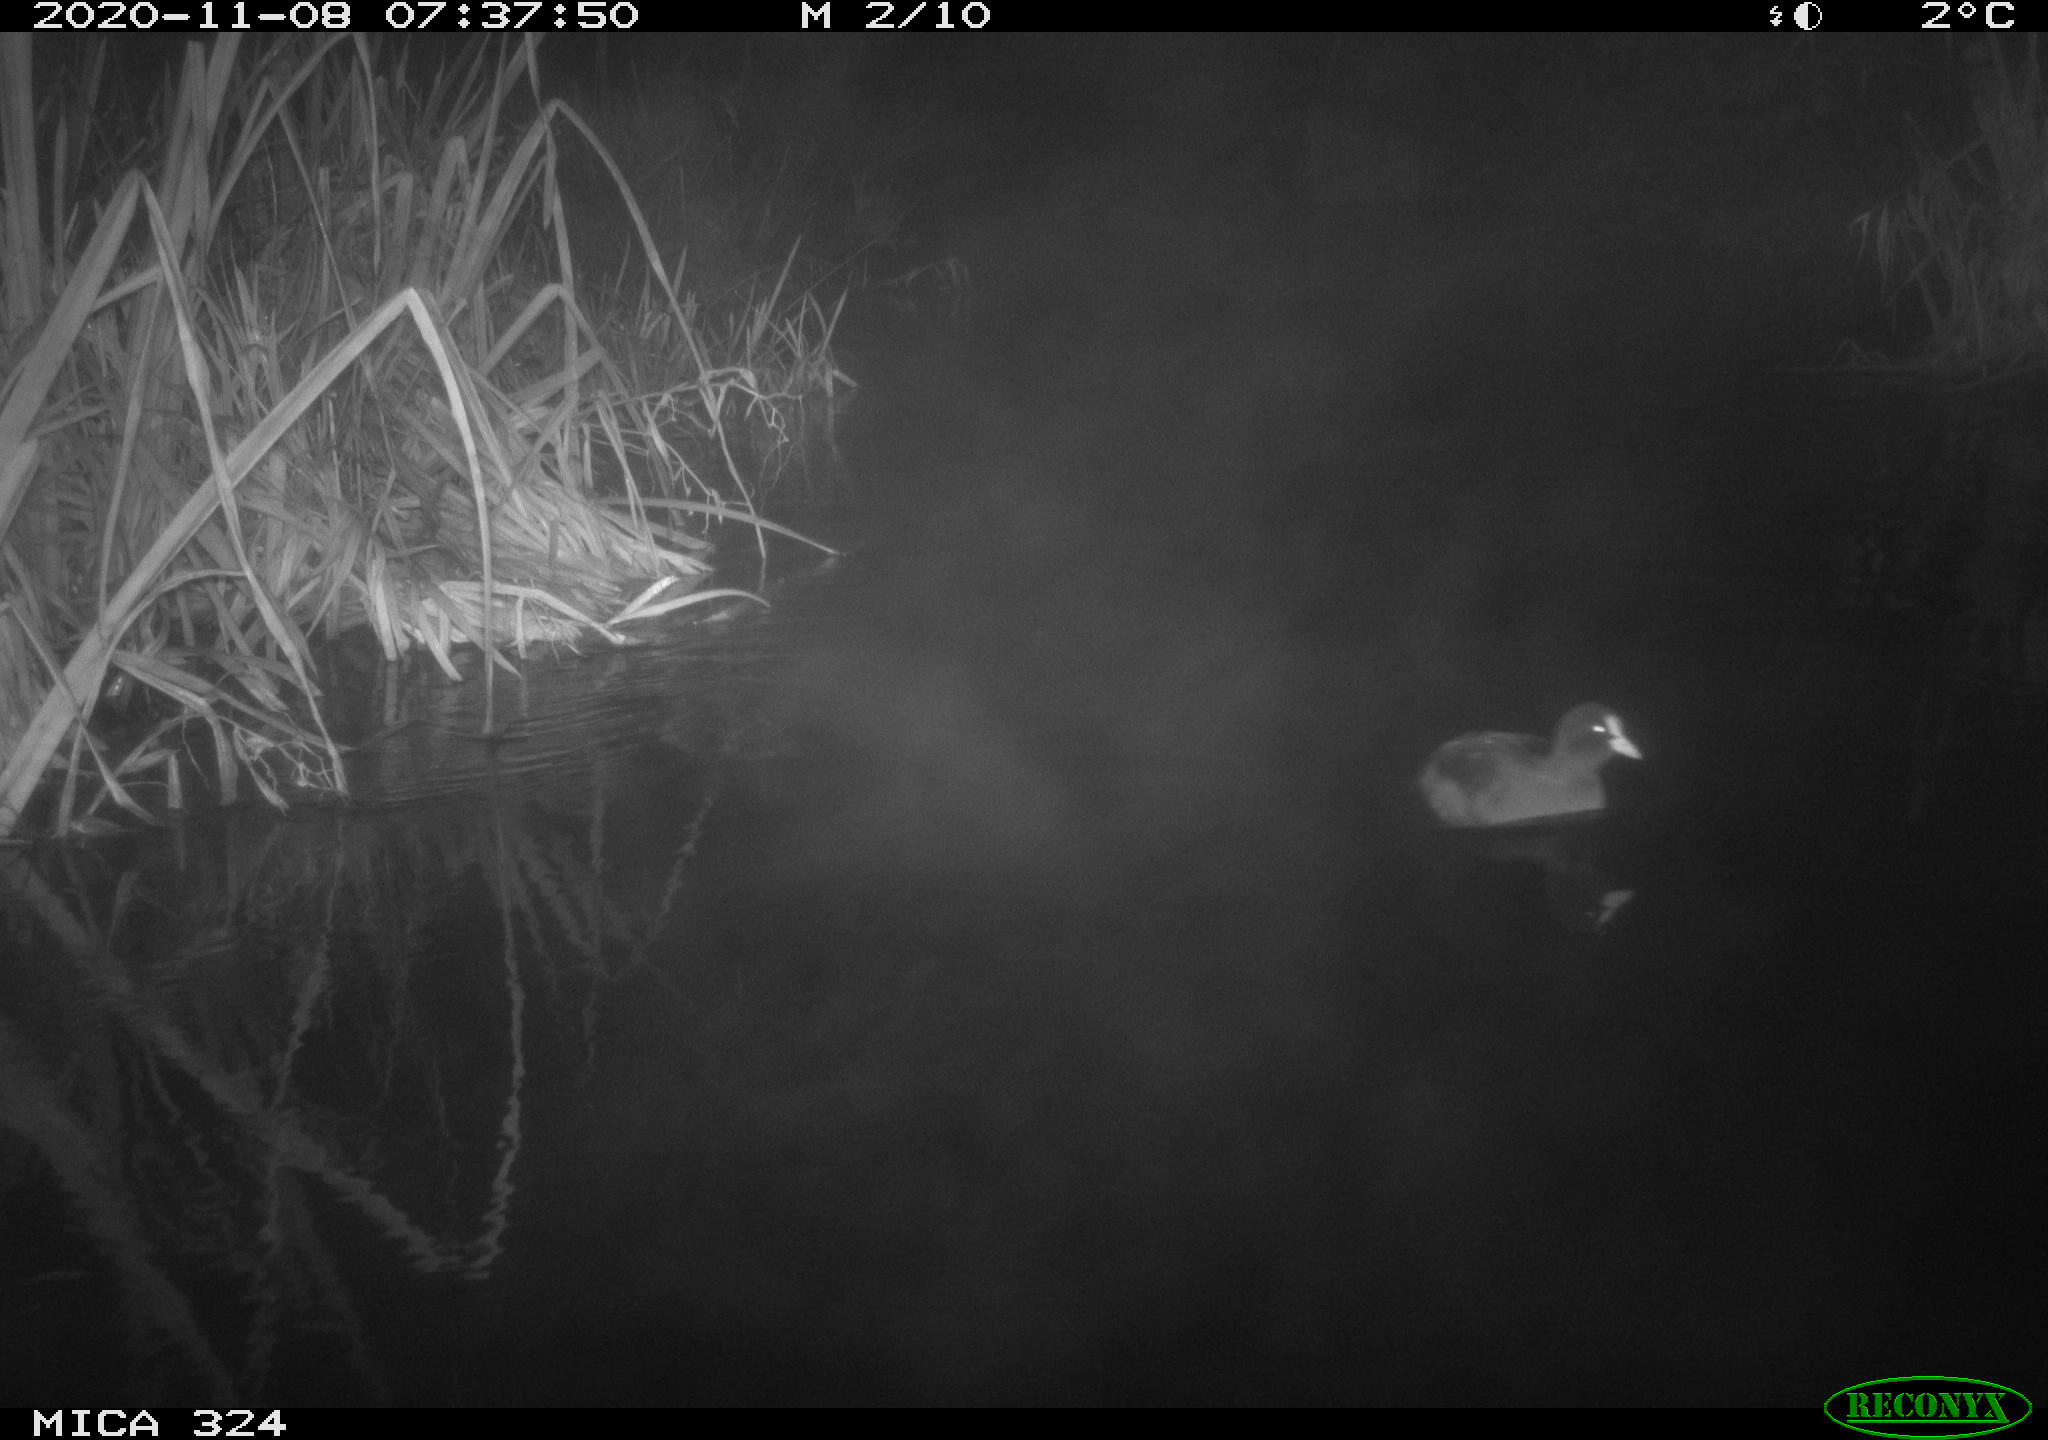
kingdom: Animalia
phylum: Chordata
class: Aves
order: Gruiformes
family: Rallidae
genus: Fulica
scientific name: Fulica atra
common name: Eurasian coot
